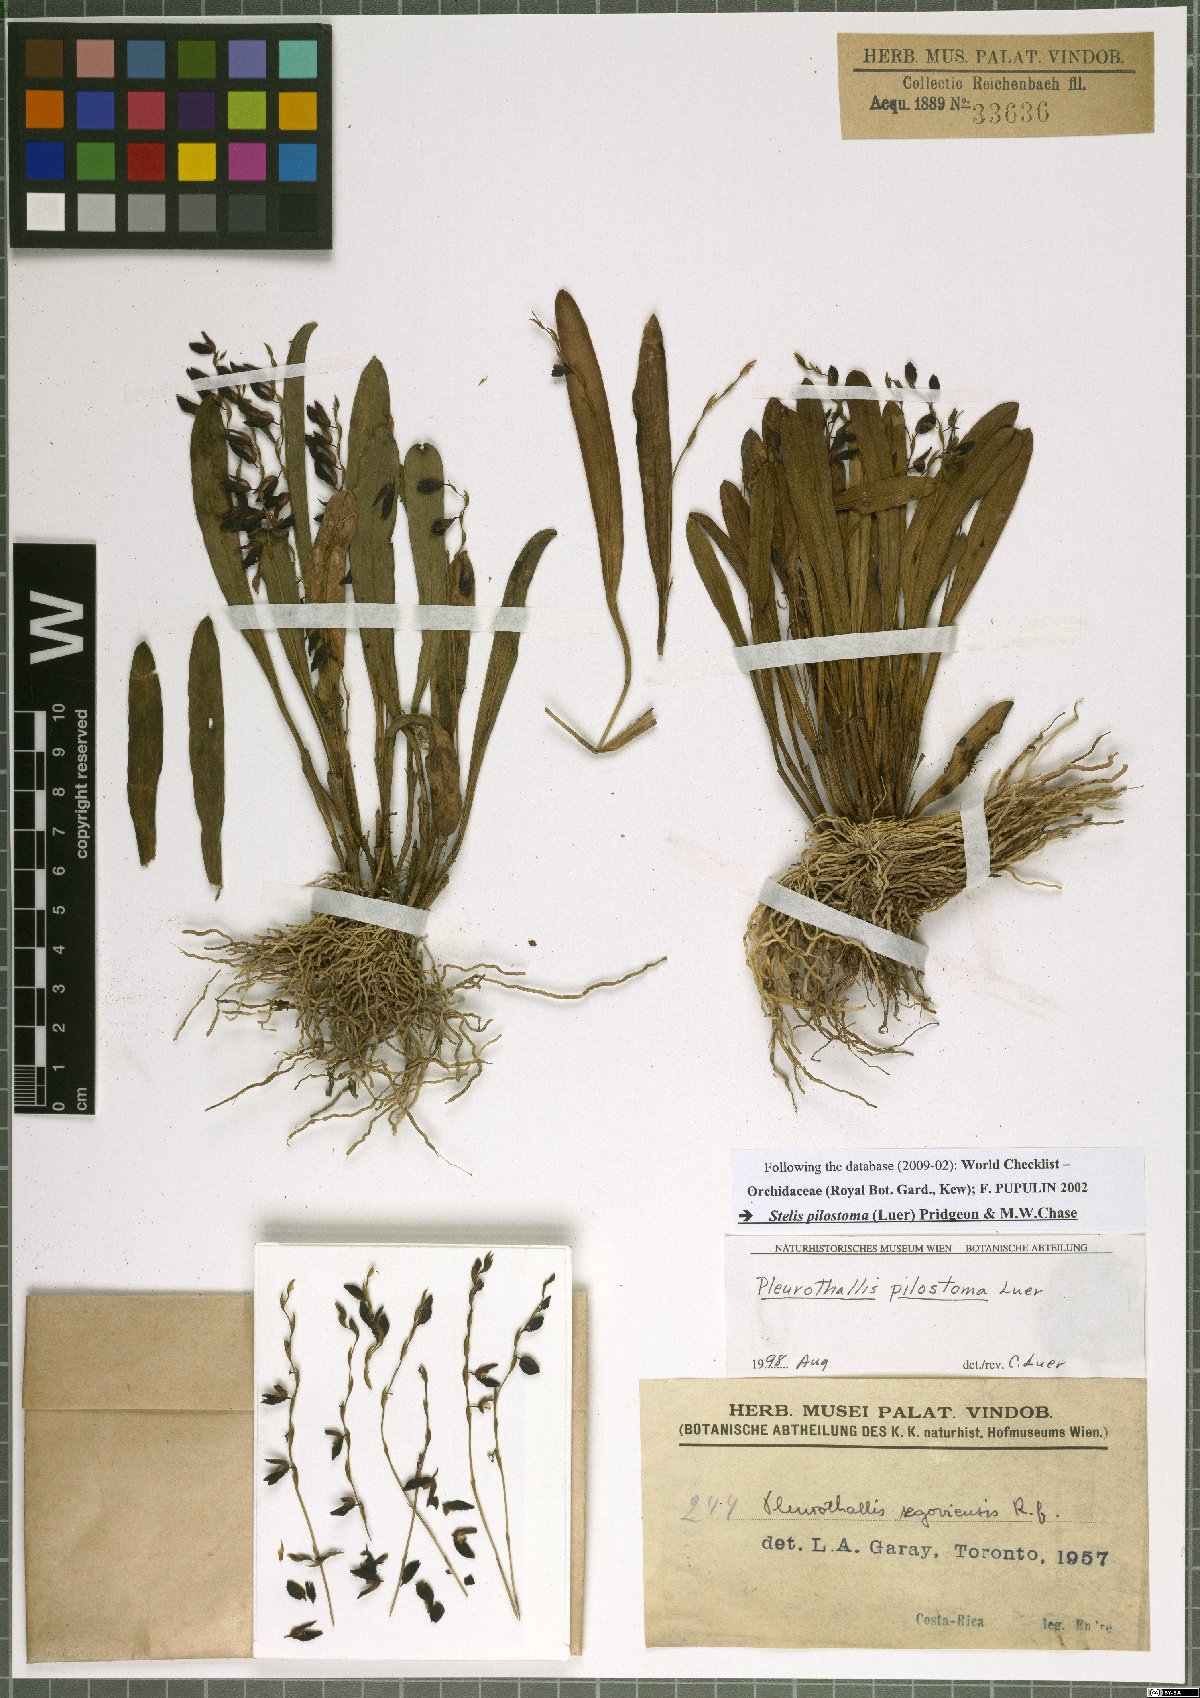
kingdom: Plantae
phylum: Tracheophyta
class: Liliopsida
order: Asparagales
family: Orchidaceae
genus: Stelis
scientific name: Stelis pilostoma
